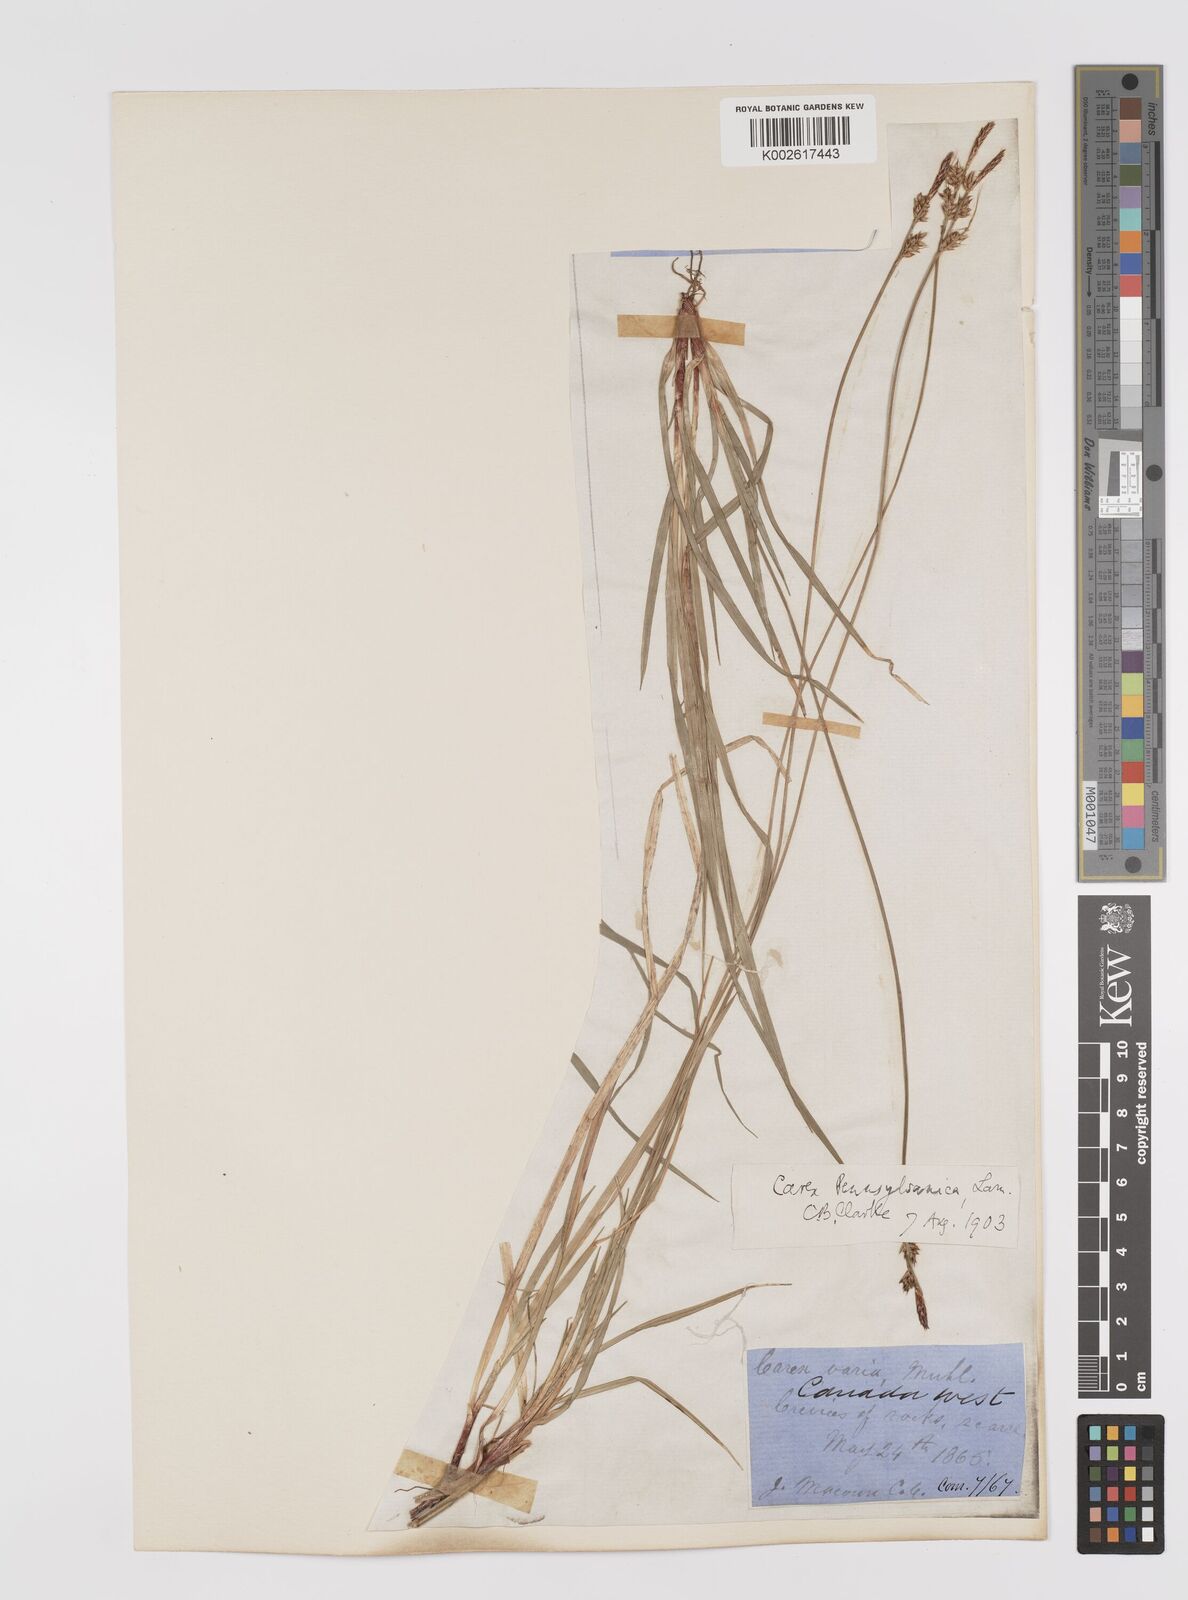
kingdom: Plantae
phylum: Tracheophyta
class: Liliopsida
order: Poales
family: Cyperaceae
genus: Carex
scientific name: Carex pensylvanica
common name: Common oak sedge
